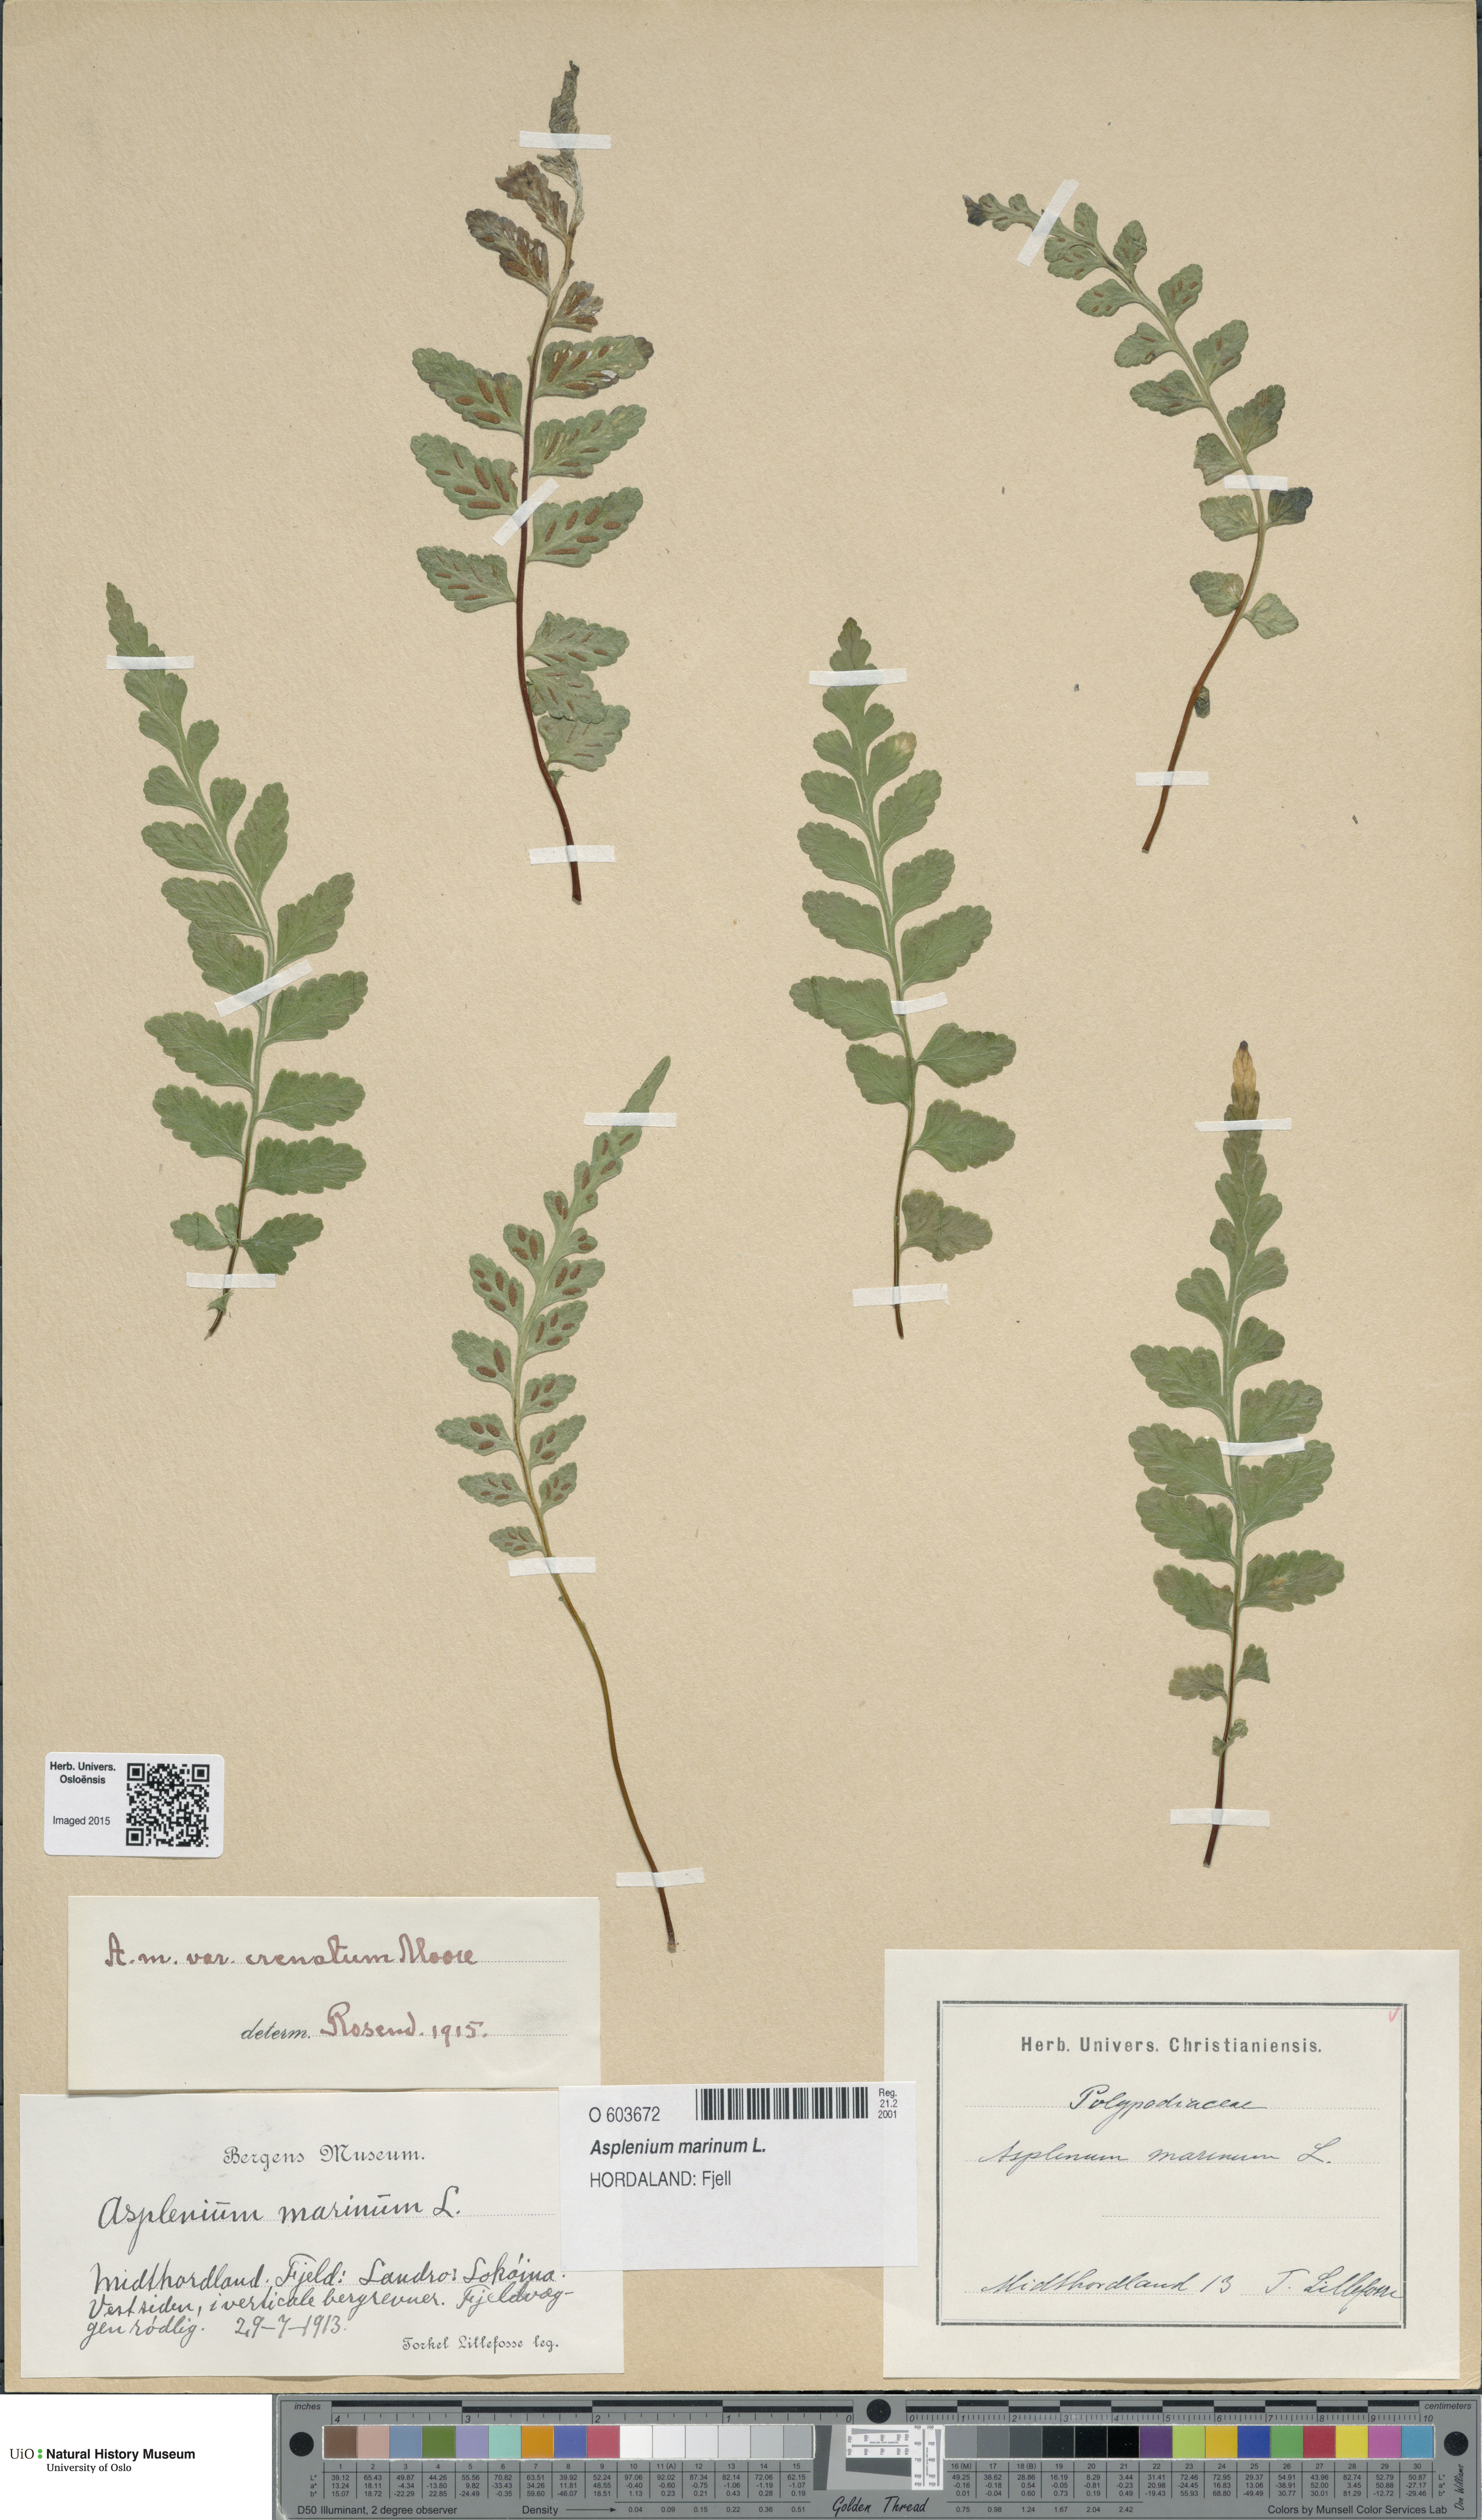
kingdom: Plantae
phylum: Tracheophyta
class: Polypodiopsida
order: Polypodiales
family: Aspleniaceae
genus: Asplenium
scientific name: Asplenium marinum
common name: Sea spleenwort
